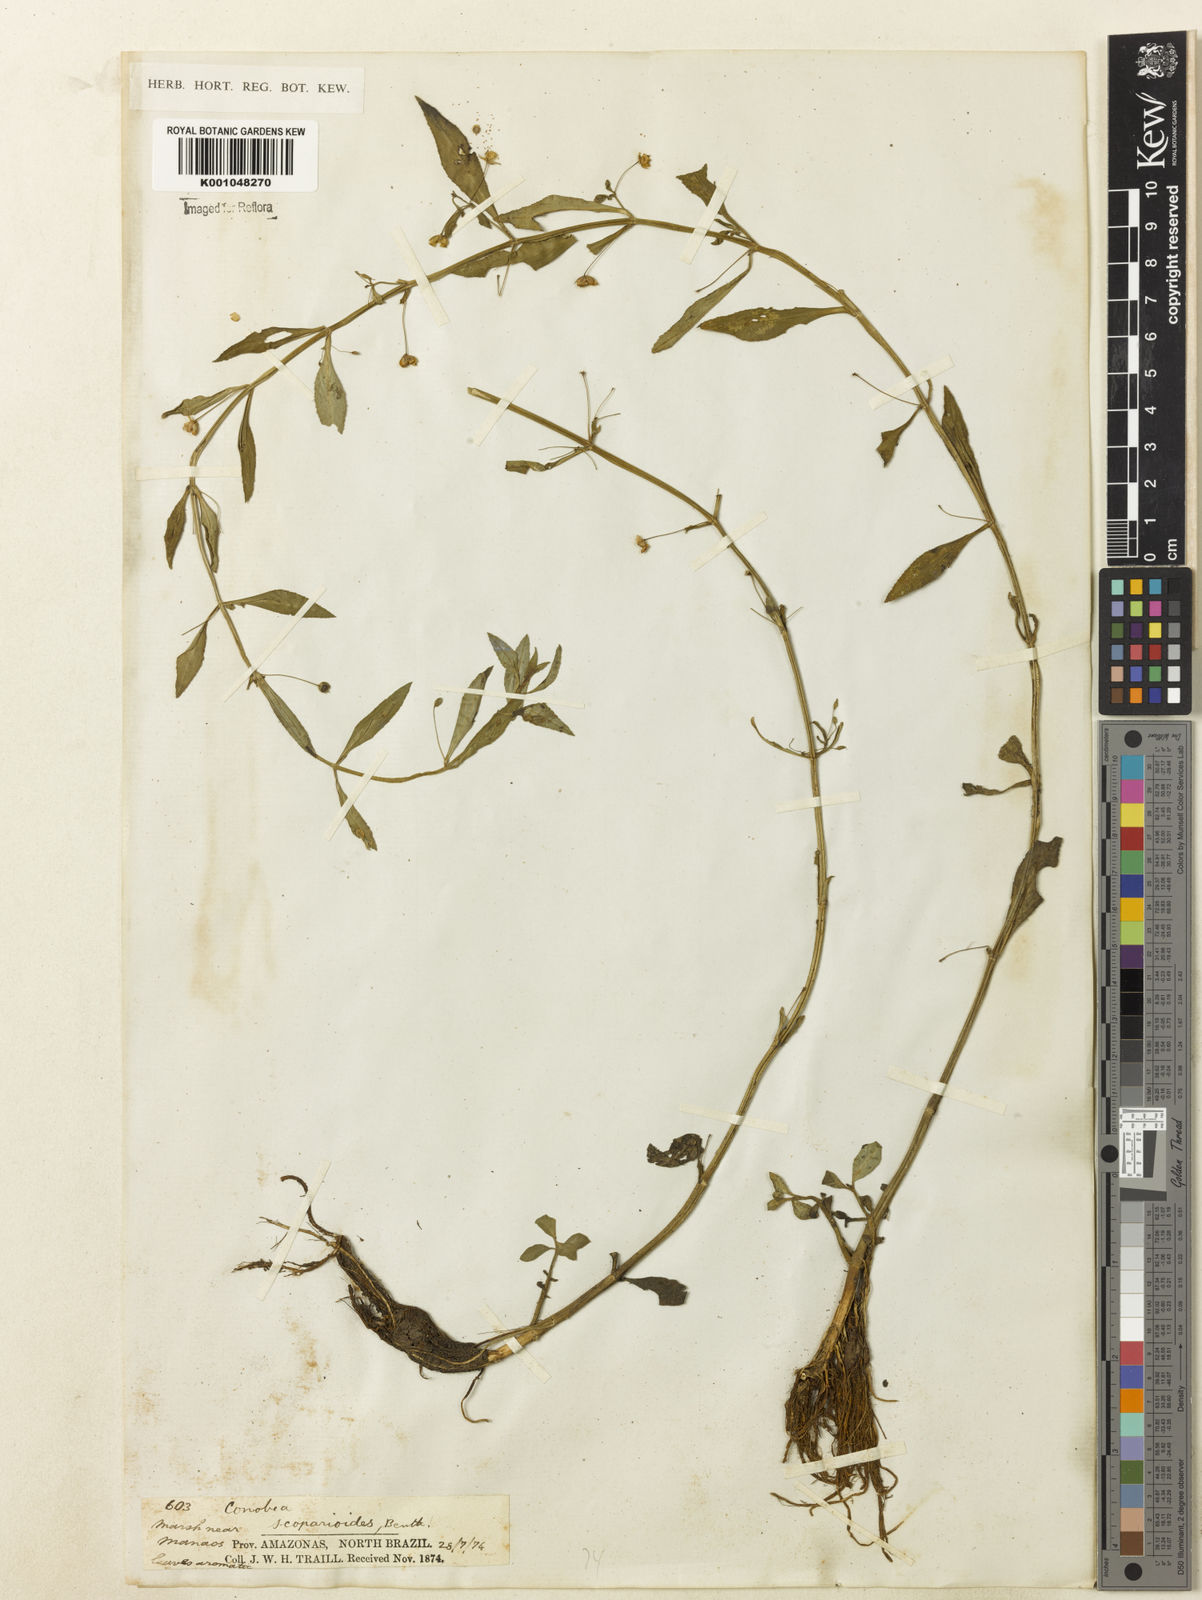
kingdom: Plantae
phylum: Tracheophyta
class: Magnoliopsida
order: Lamiales
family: Plantaginaceae
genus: Conobea
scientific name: Conobea scoparioides
